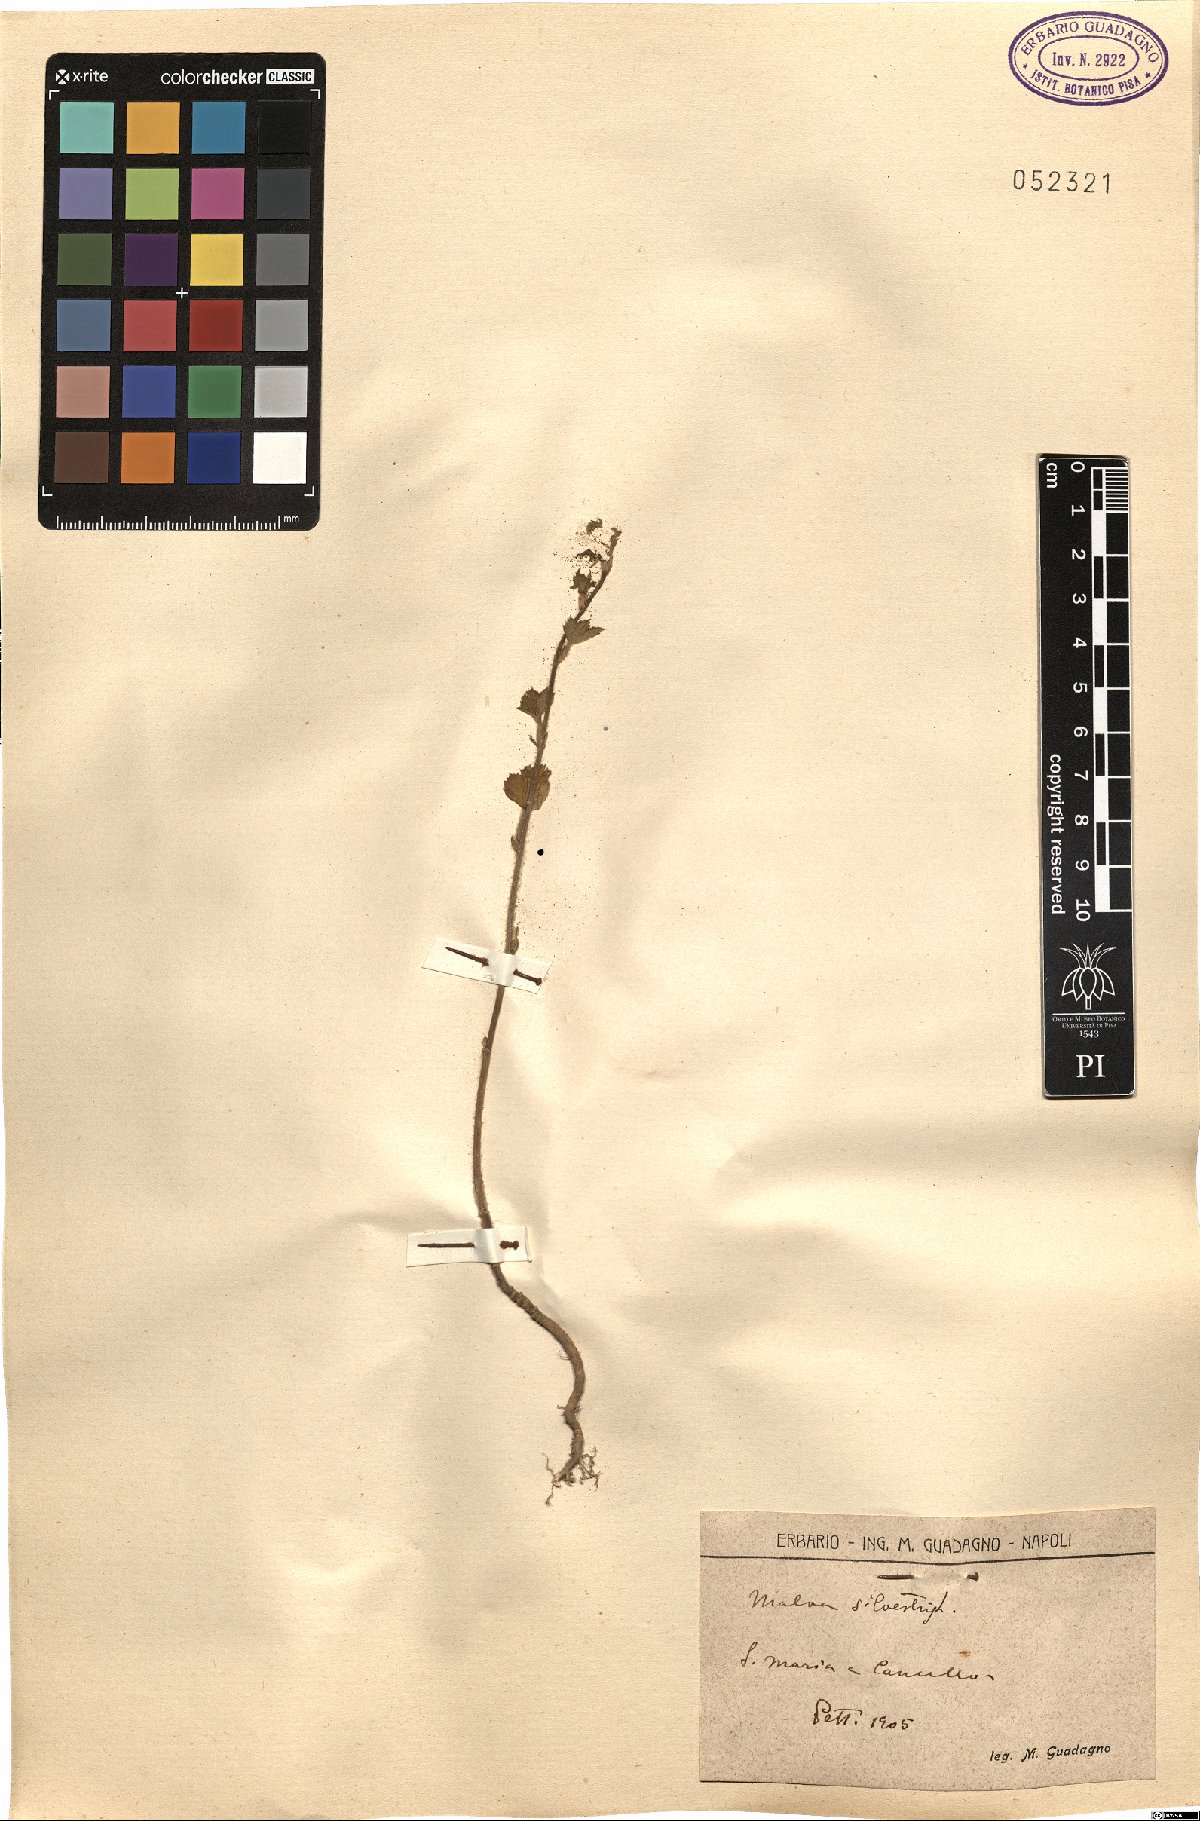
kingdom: Plantae
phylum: Tracheophyta
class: Magnoliopsida
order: Malvales
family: Malvaceae
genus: Malva
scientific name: Malva sylvestris
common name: Common mallow
